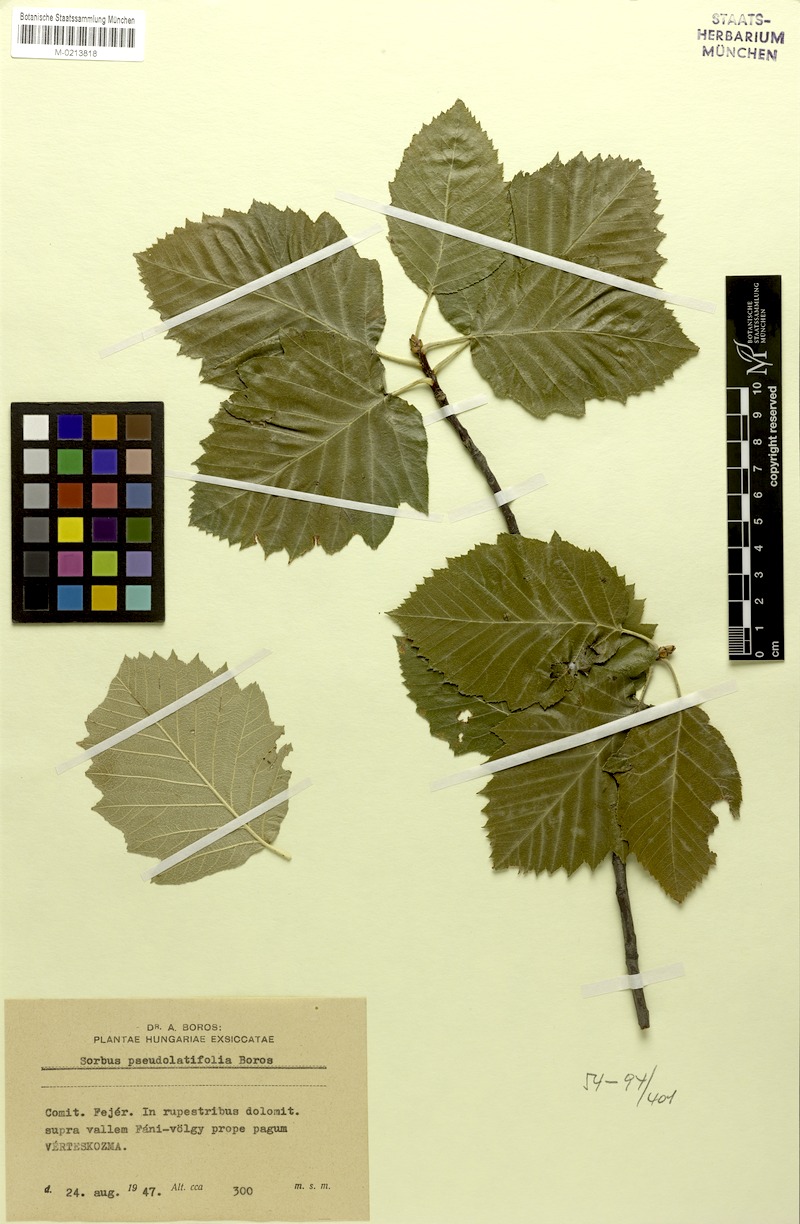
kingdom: Plantae
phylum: Tracheophyta
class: Magnoliopsida
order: Rosales
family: Rosaceae
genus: Karpatiosorbus
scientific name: Karpatiosorbus pseudolatifolia
